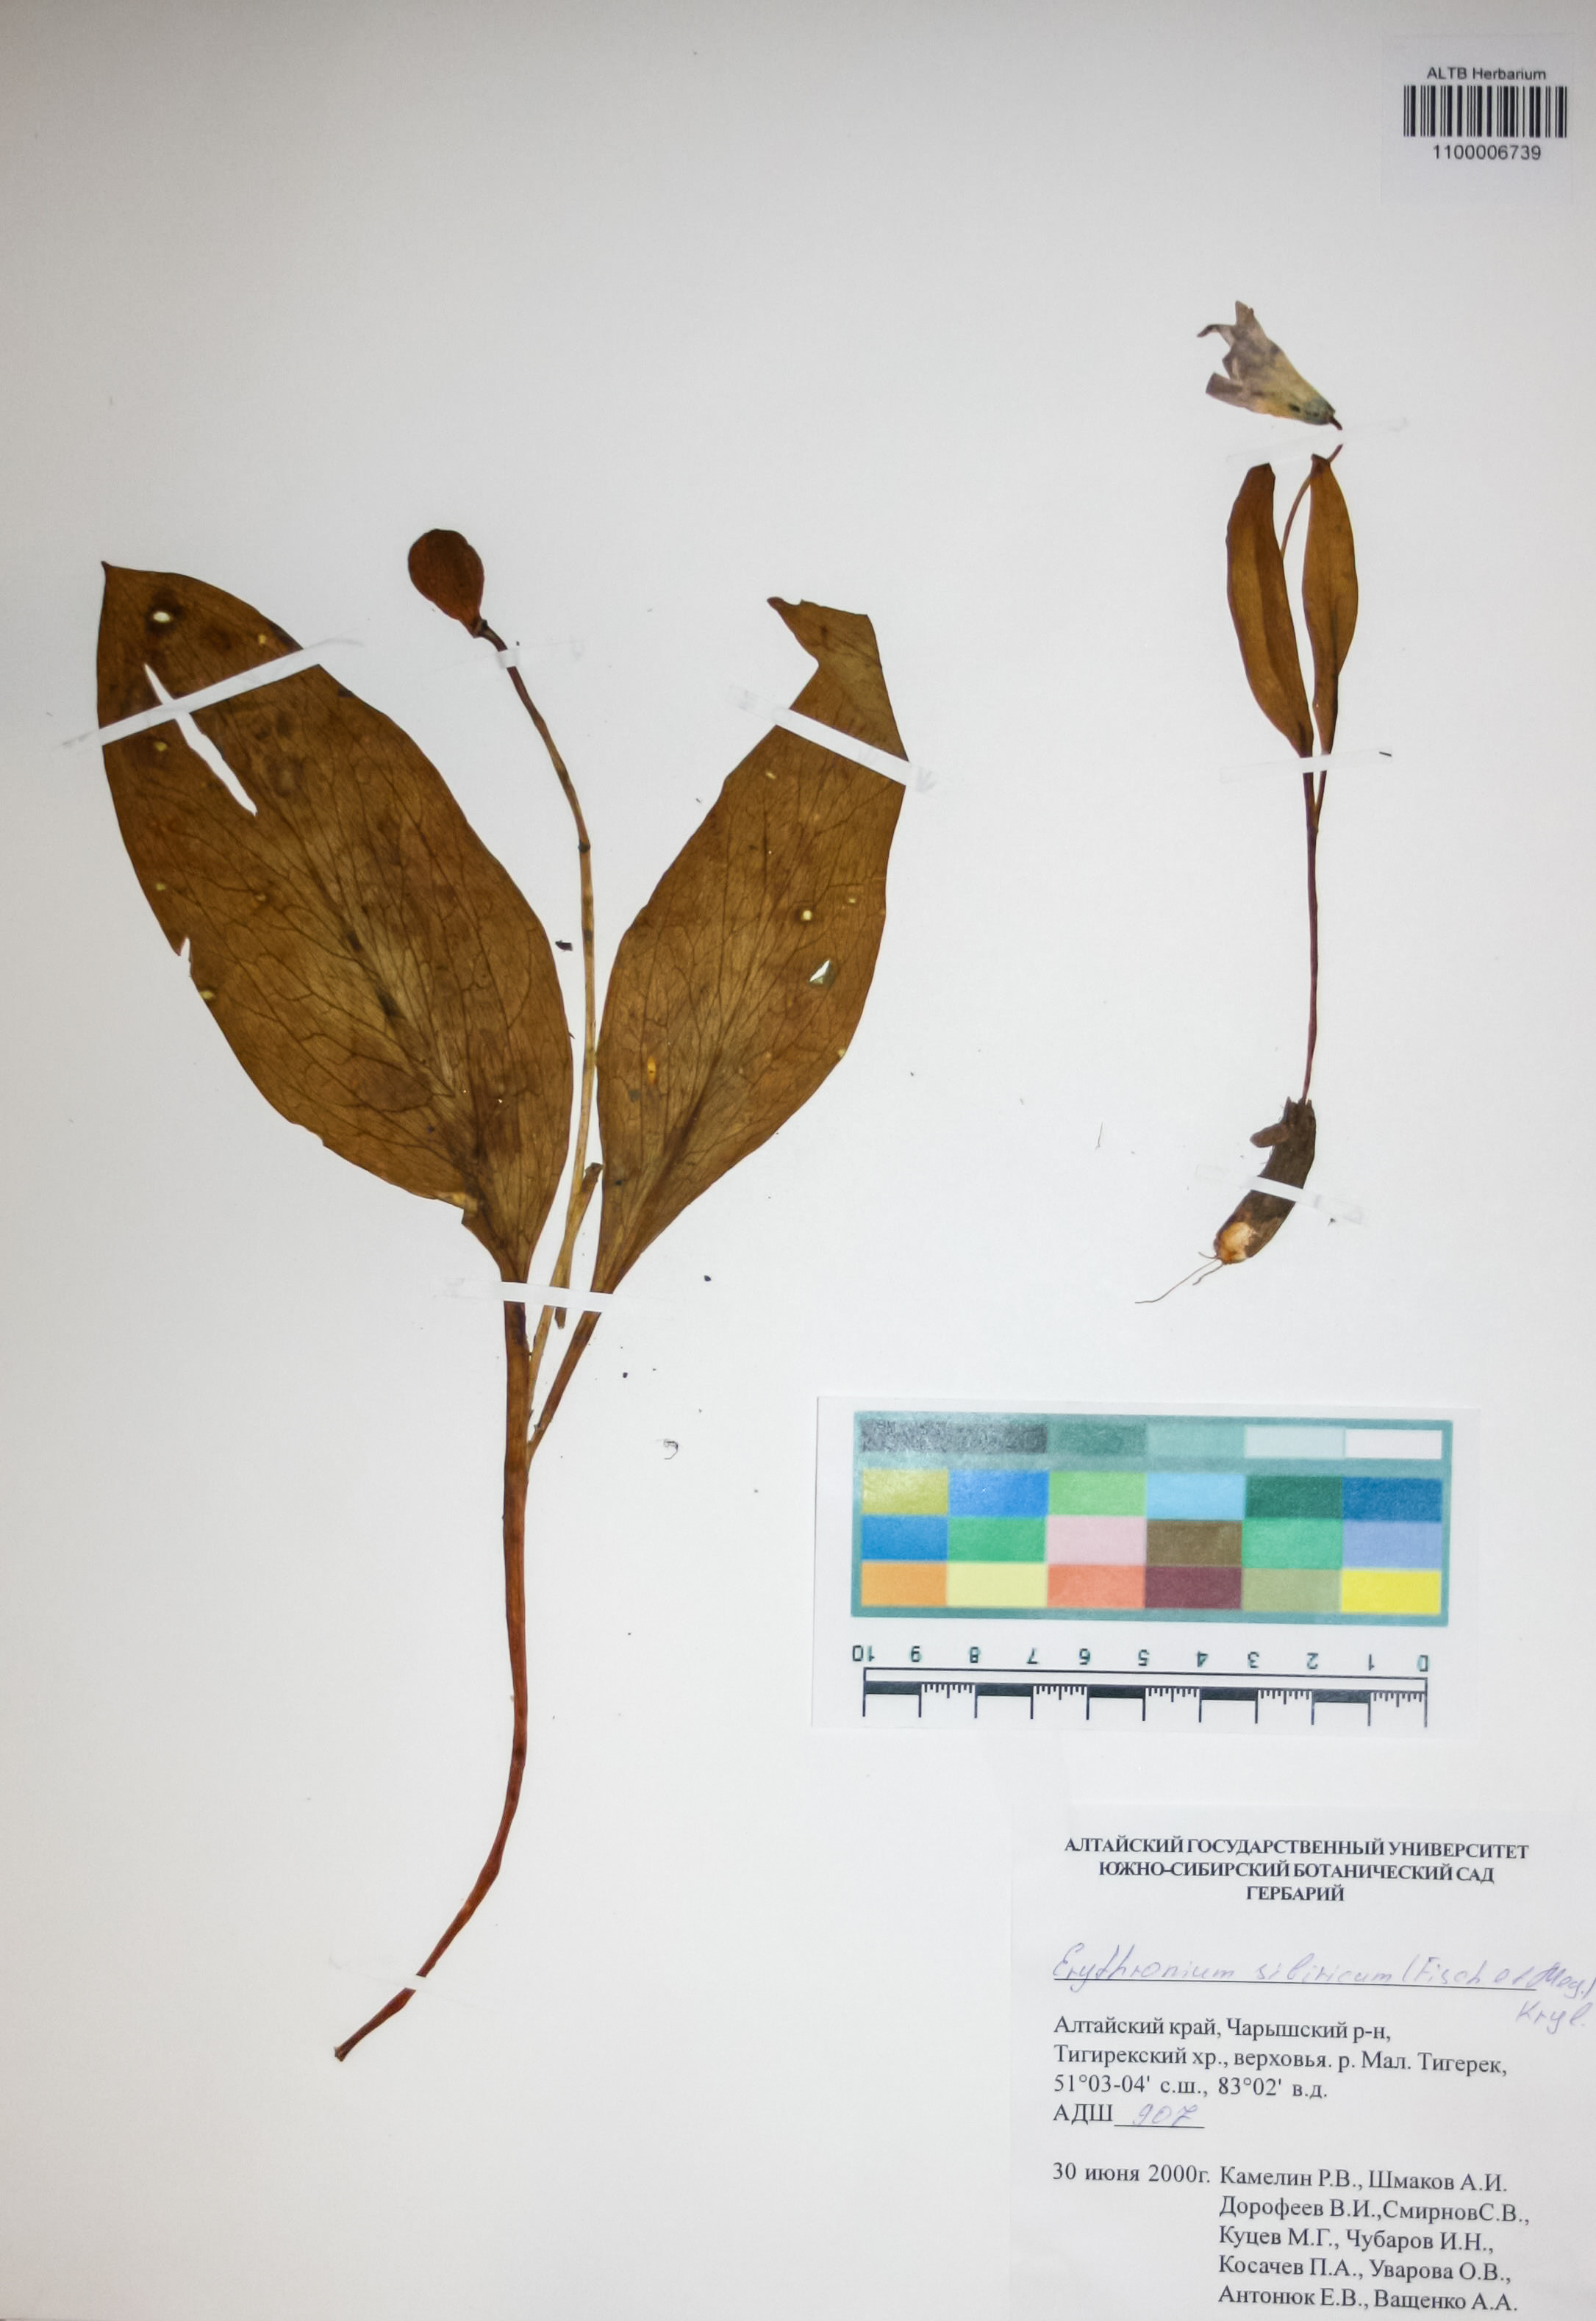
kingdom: Plantae
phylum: Tracheophyta
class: Liliopsida
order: Liliales
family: Liliaceae
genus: Erythronium
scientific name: Erythronium sibiricum
